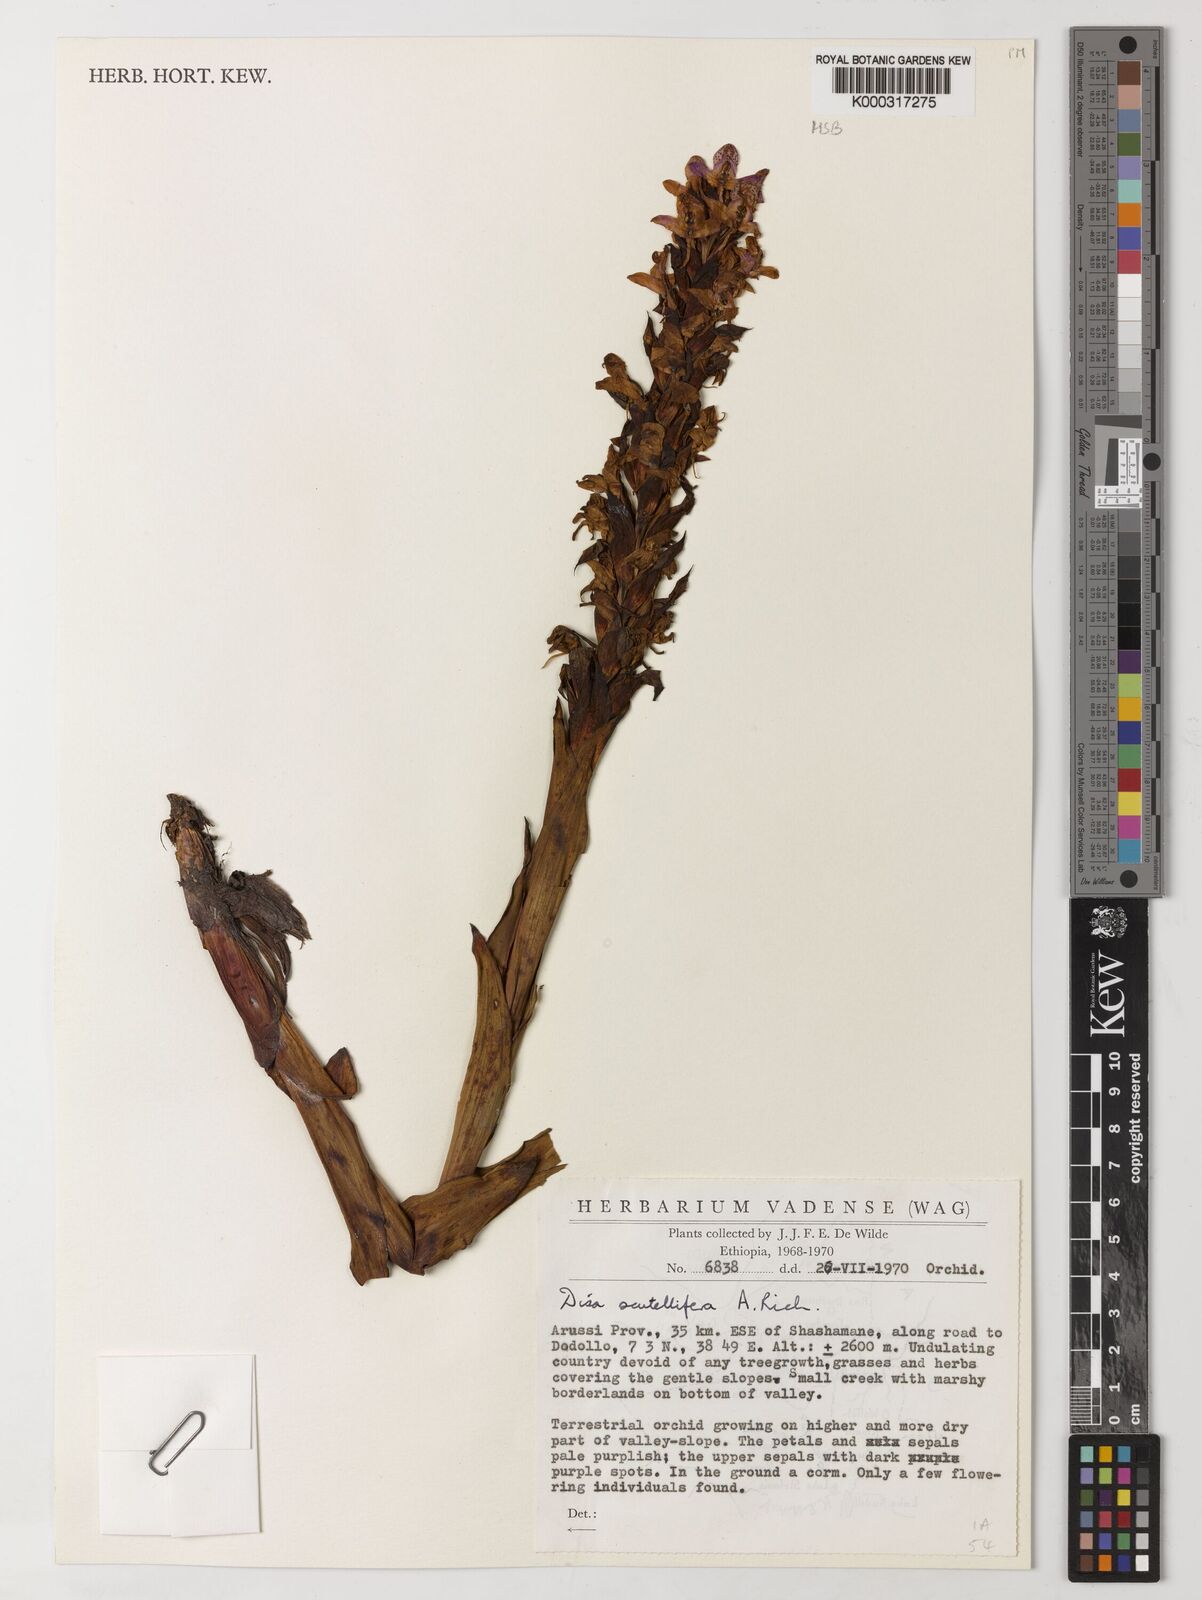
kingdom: Plantae
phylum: Tracheophyta
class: Liliopsida
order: Asparagales
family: Orchidaceae
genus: Disa
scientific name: Disa scutellifera
